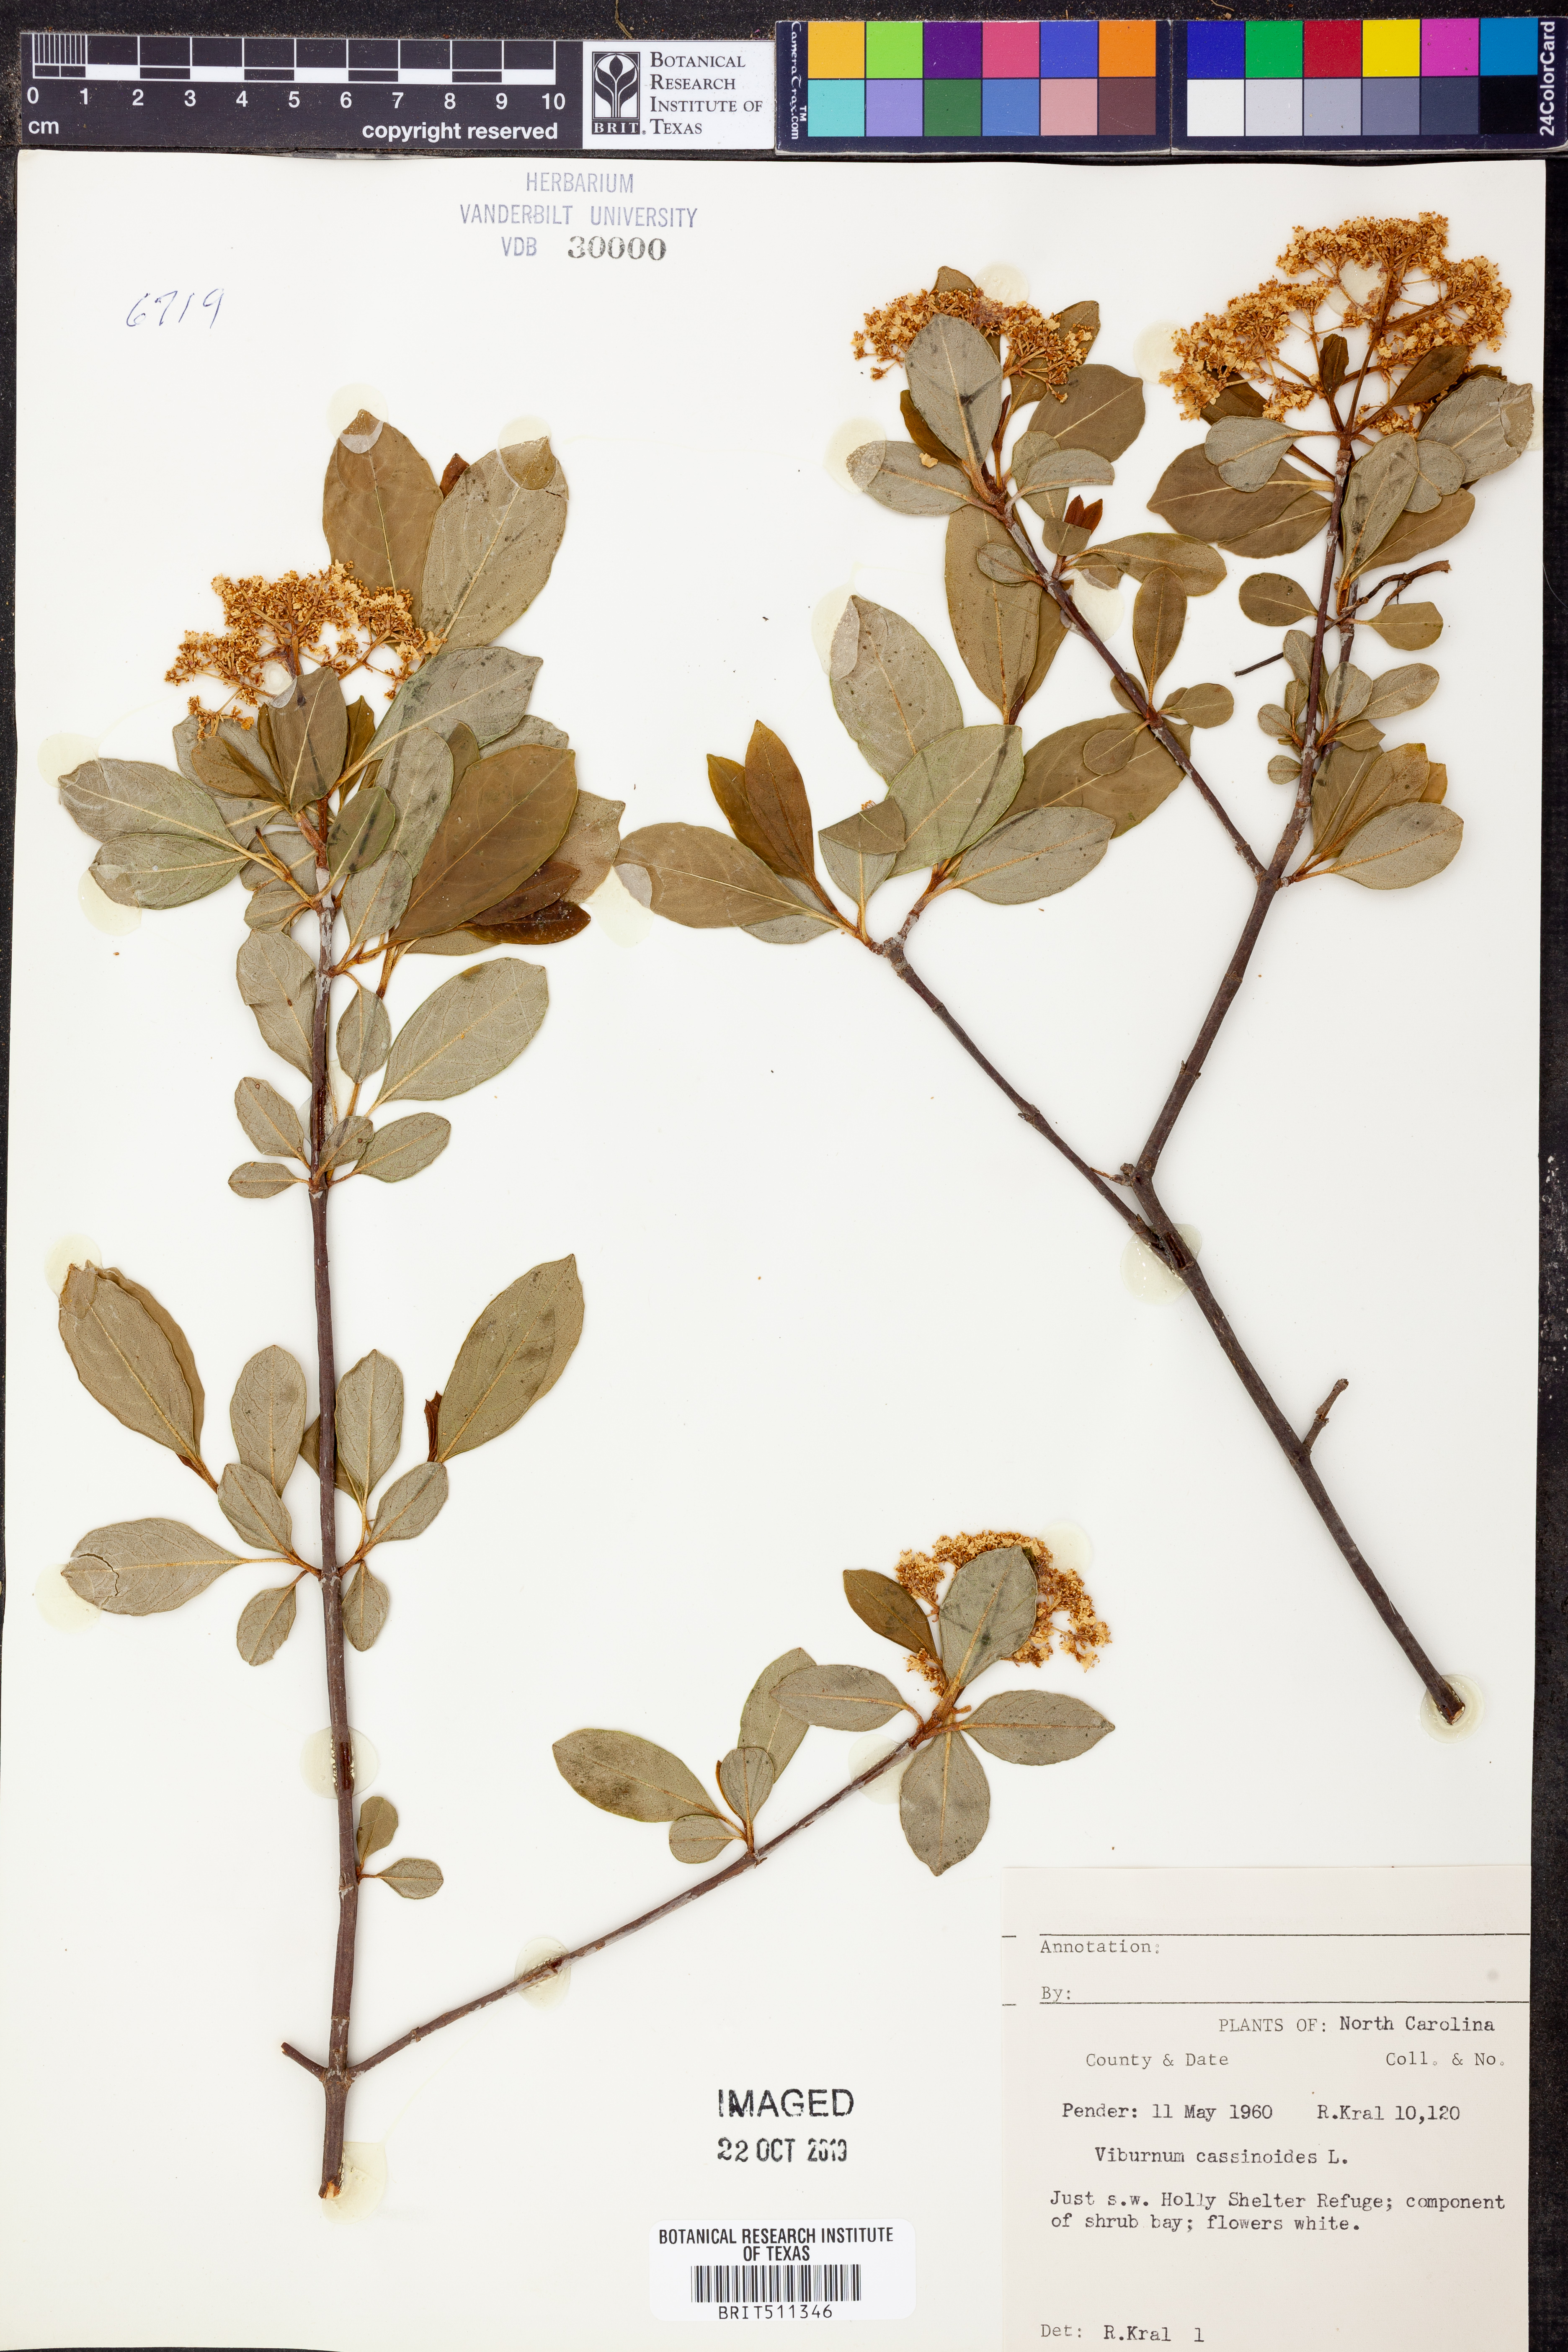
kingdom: Plantae
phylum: Tracheophyta
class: Magnoliopsida
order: Dipsacales
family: Viburnaceae
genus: Viburnum
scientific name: Viburnum cassinoides
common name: Swamp haw
